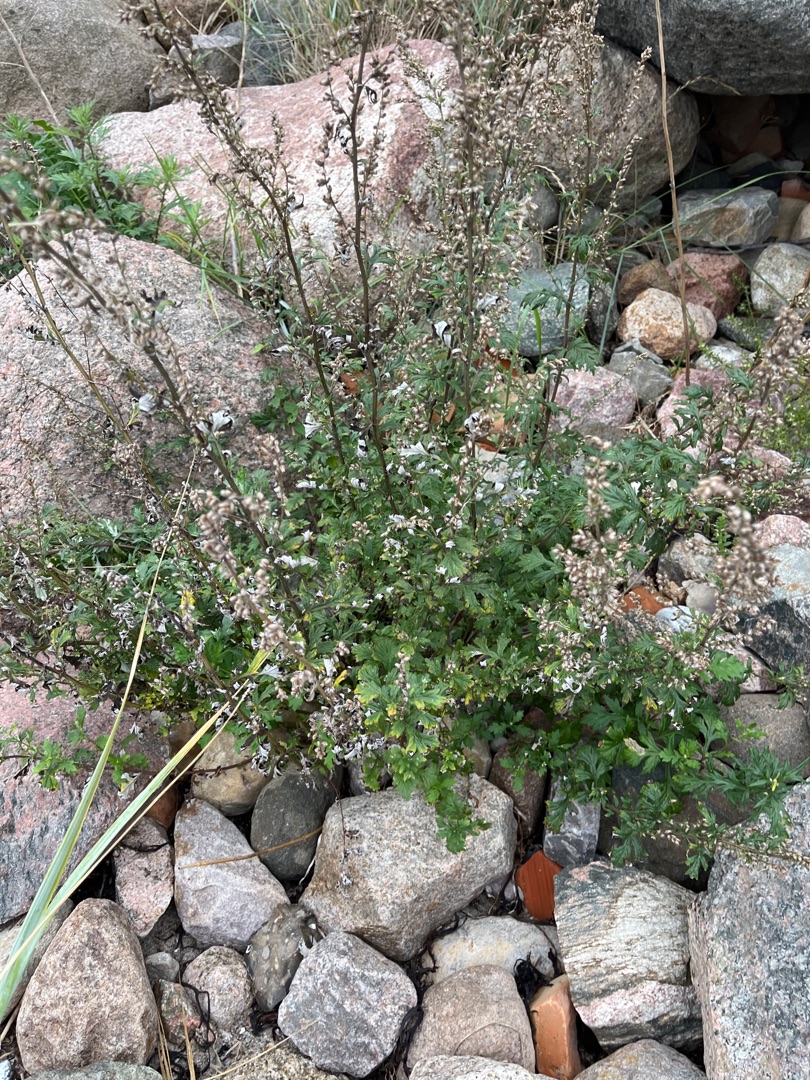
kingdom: Plantae
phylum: Tracheophyta
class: Magnoliopsida
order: Asterales
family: Asteraceae
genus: Artemisia
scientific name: Artemisia vulgaris
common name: Grå-bynke
